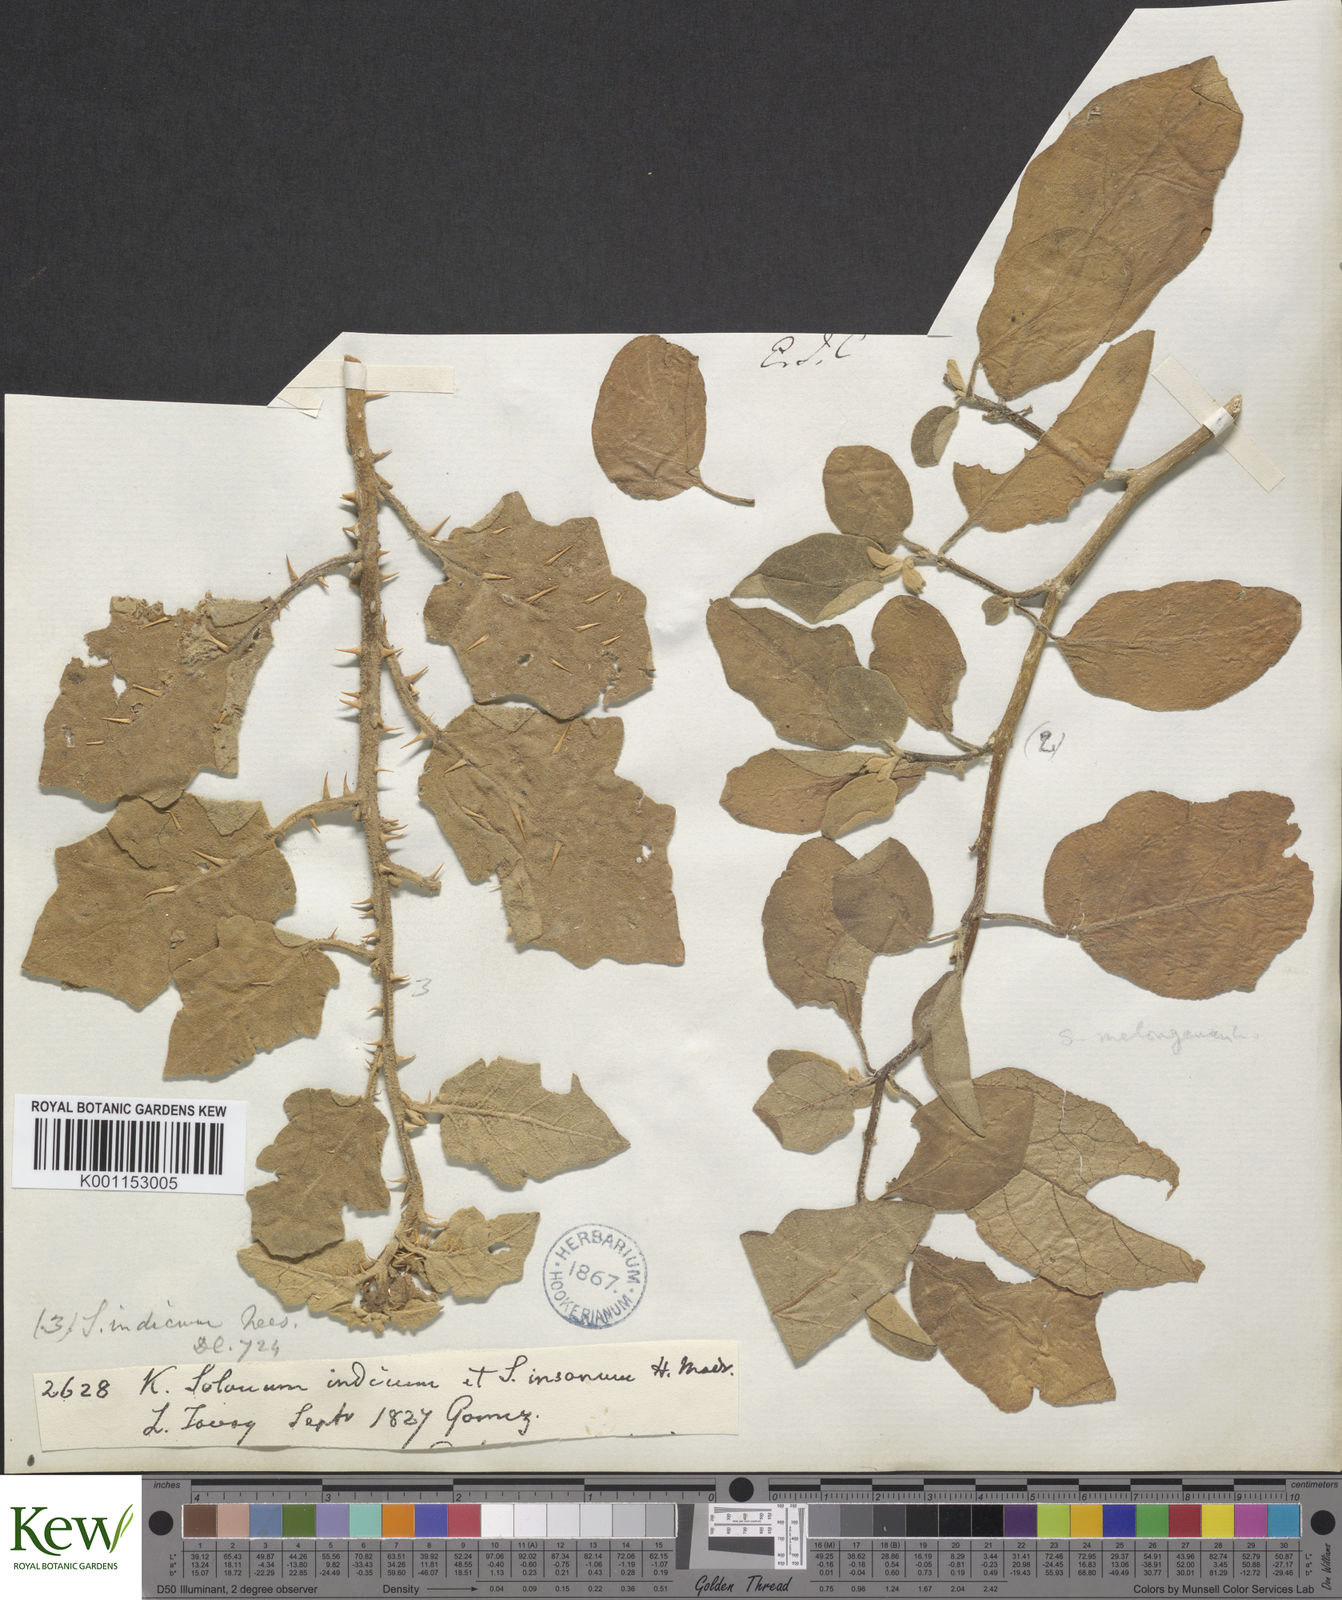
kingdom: Plantae
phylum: Tracheophyta
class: Magnoliopsida
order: Solanales
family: Solanaceae
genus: Solanum
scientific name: Solanum violaceum
